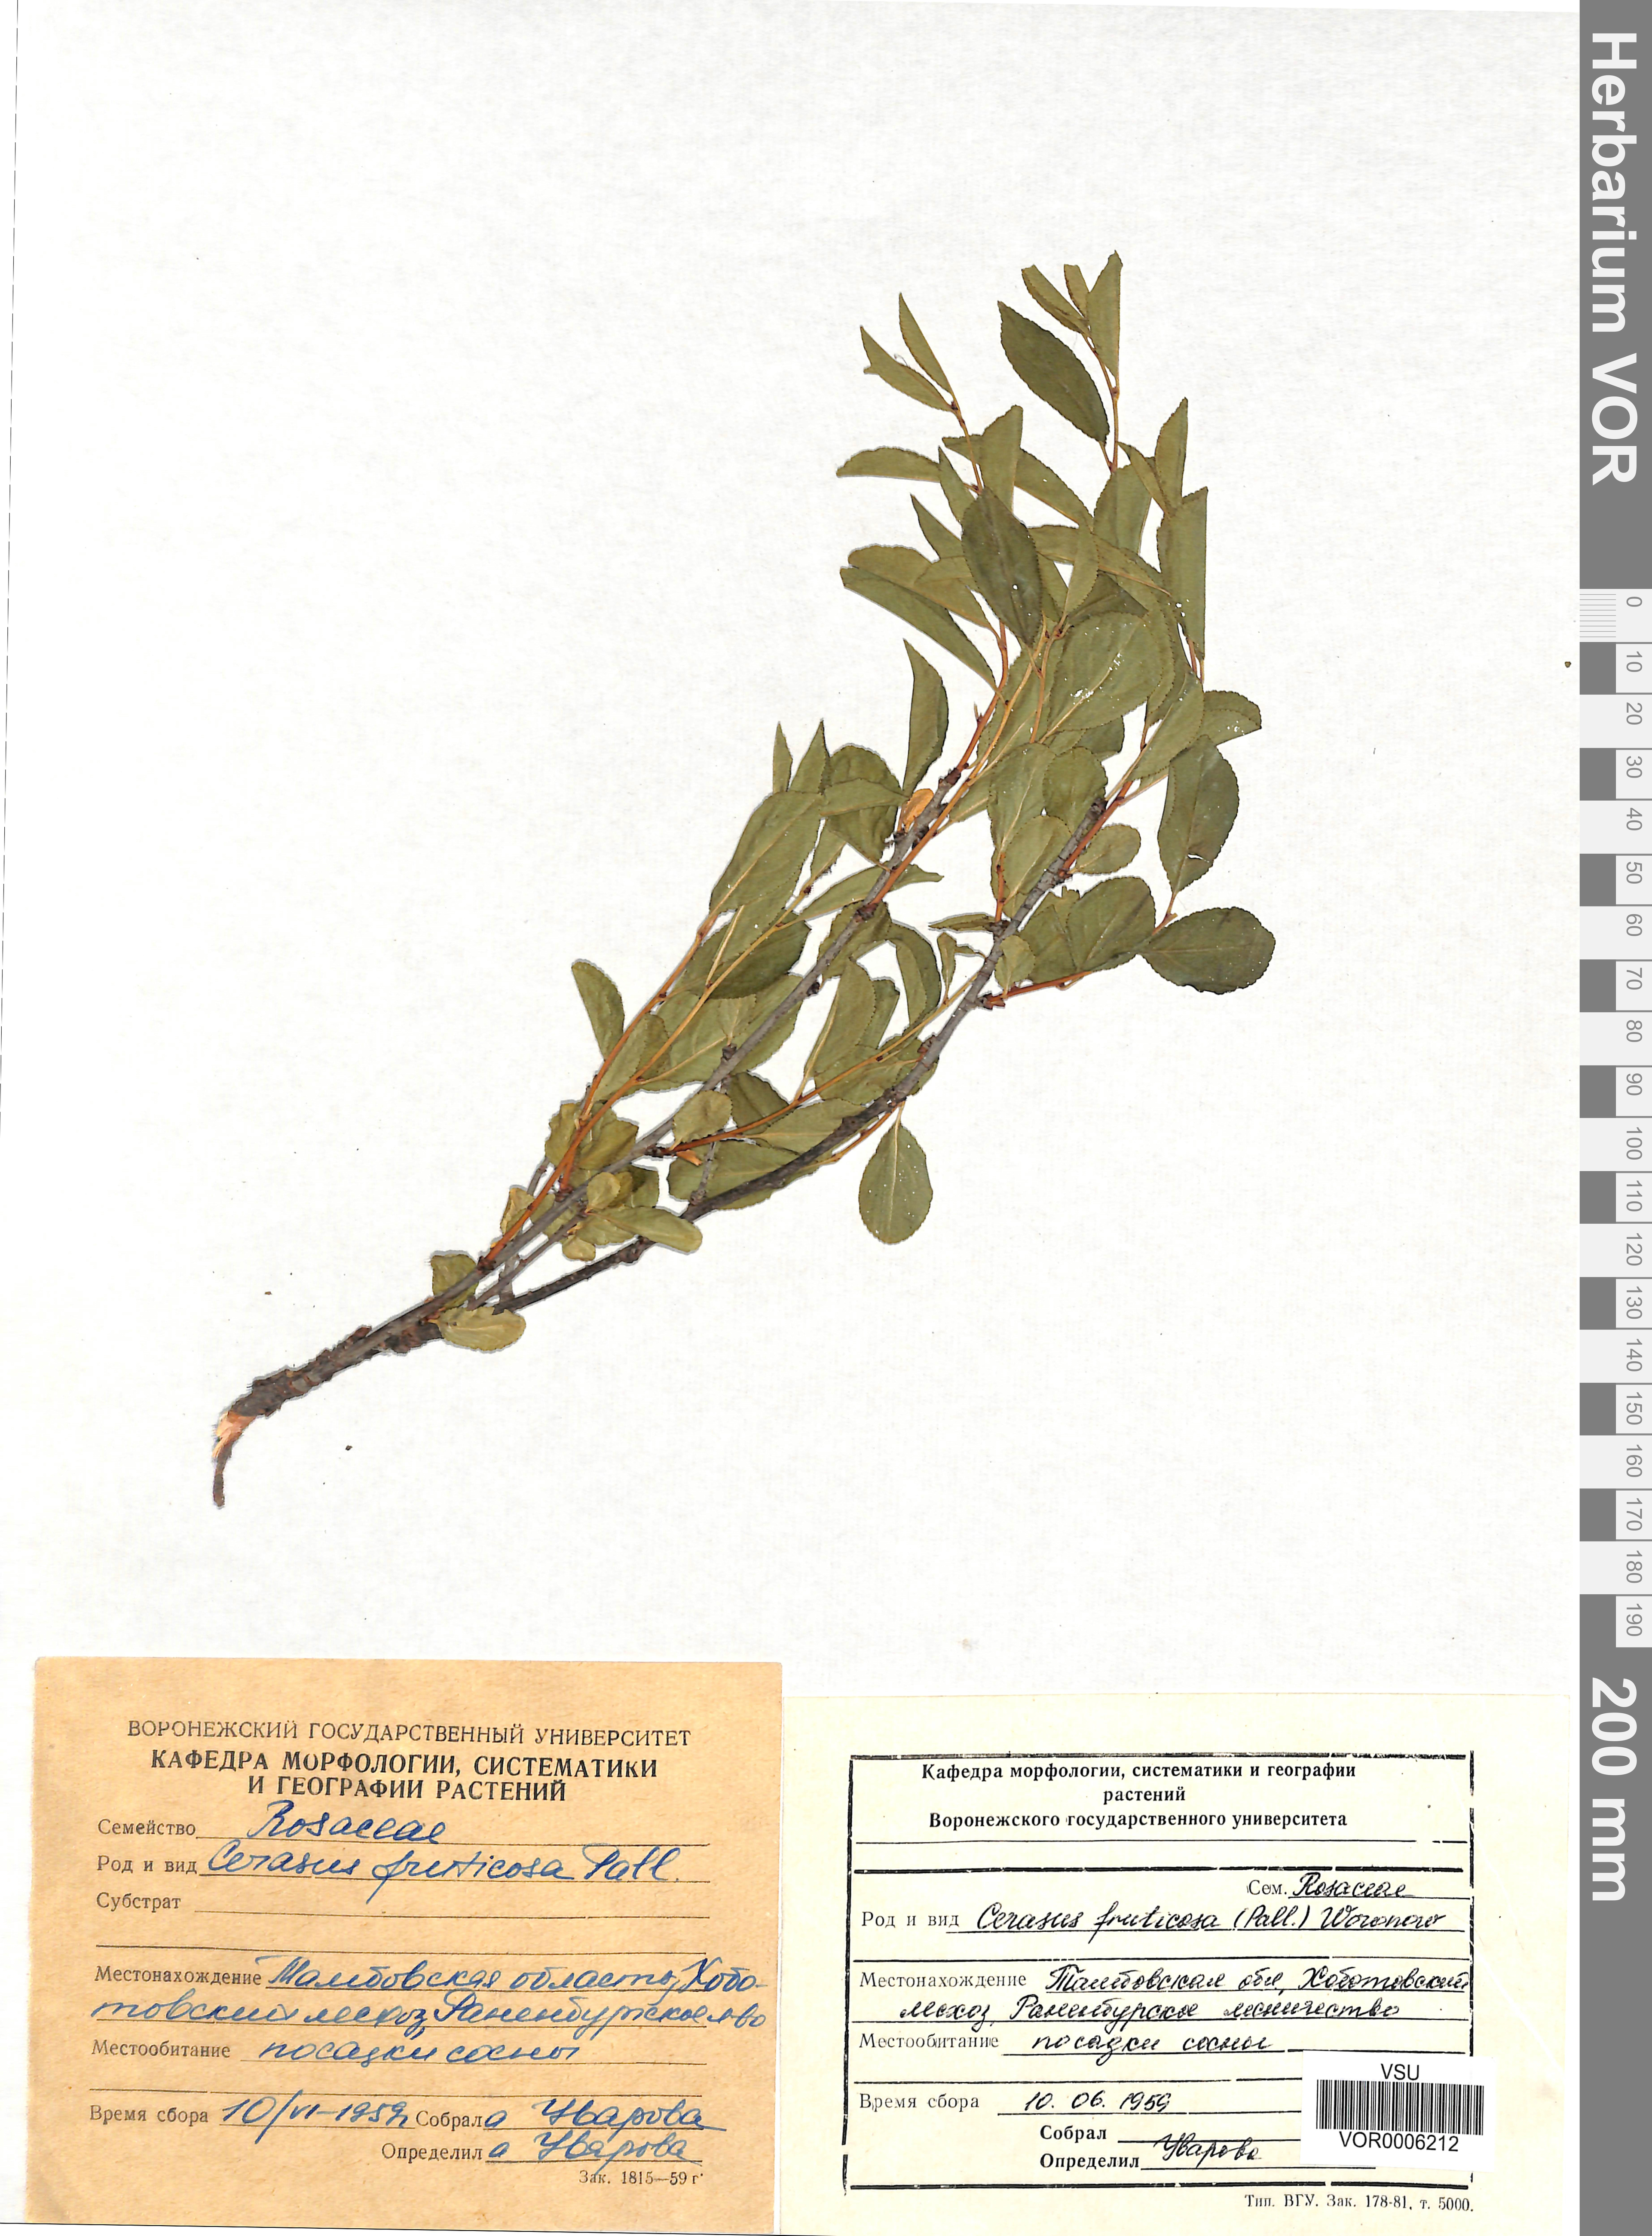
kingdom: Plantae
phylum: Tracheophyta
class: Magnoliopsida
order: Rosales
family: Rosaceae
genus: Prunus
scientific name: Prunus fruticosa
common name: European dwarf cherry
